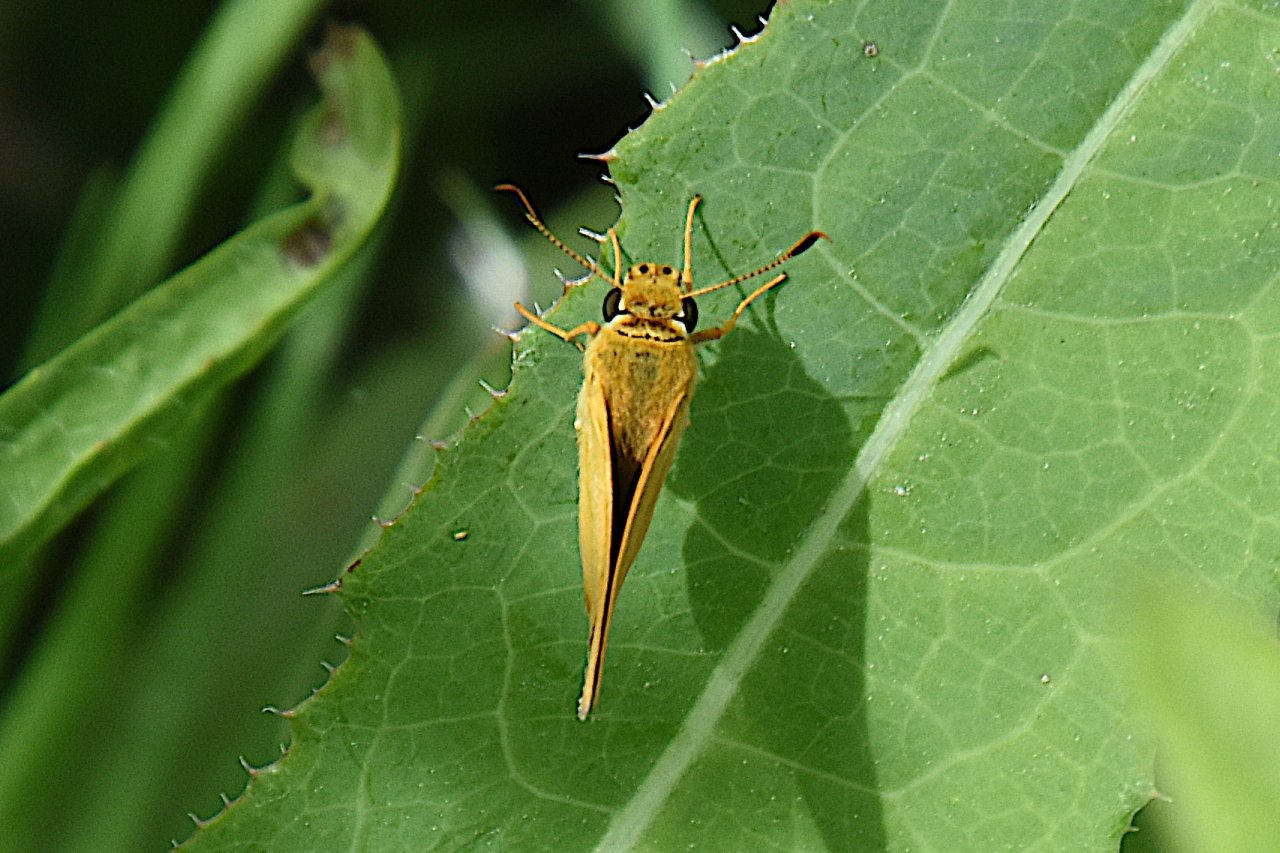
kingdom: Animalia
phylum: Arthropoda
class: Insecta
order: Lepidoptera
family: Hesperiidae
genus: Atrytone
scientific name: Atrytone delaware
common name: Delaware Skipper
